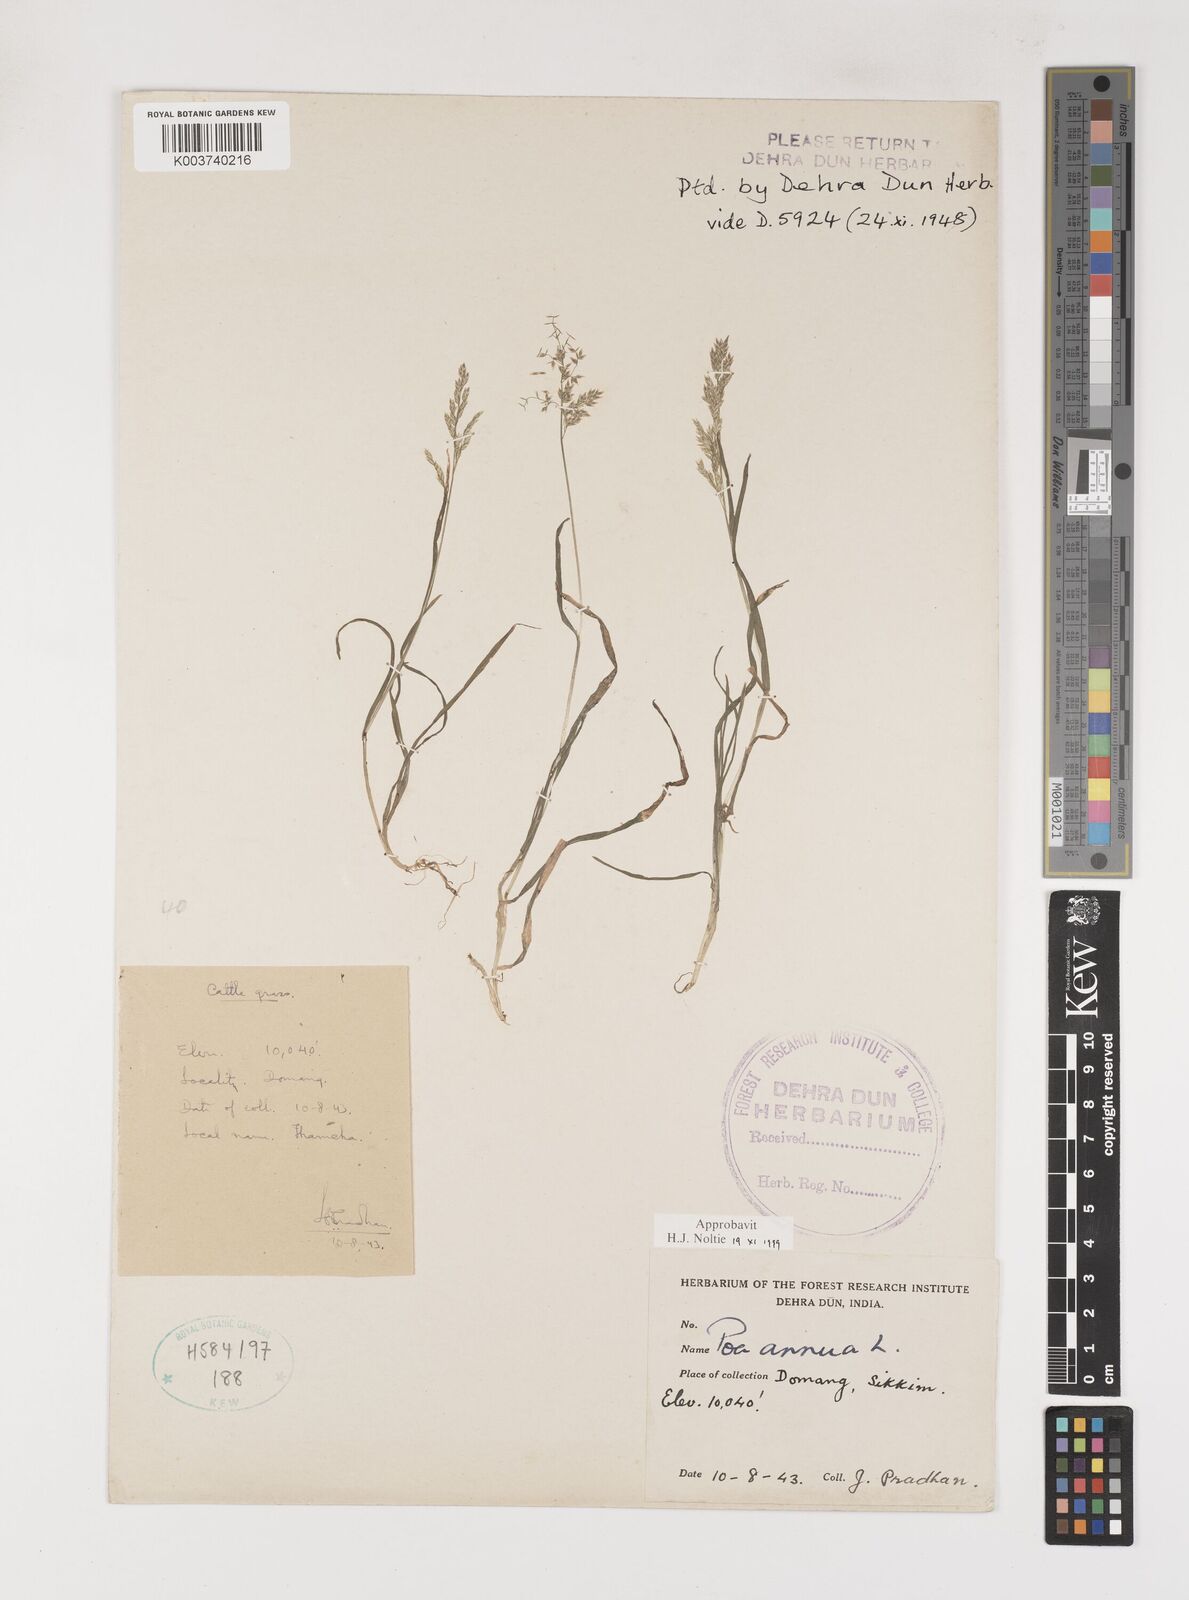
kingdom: Plantae
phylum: Tracheophyta
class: Liliopsida
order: Poales
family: Poaceae
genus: Poa
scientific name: Poa annua
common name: Annual bluegrass
